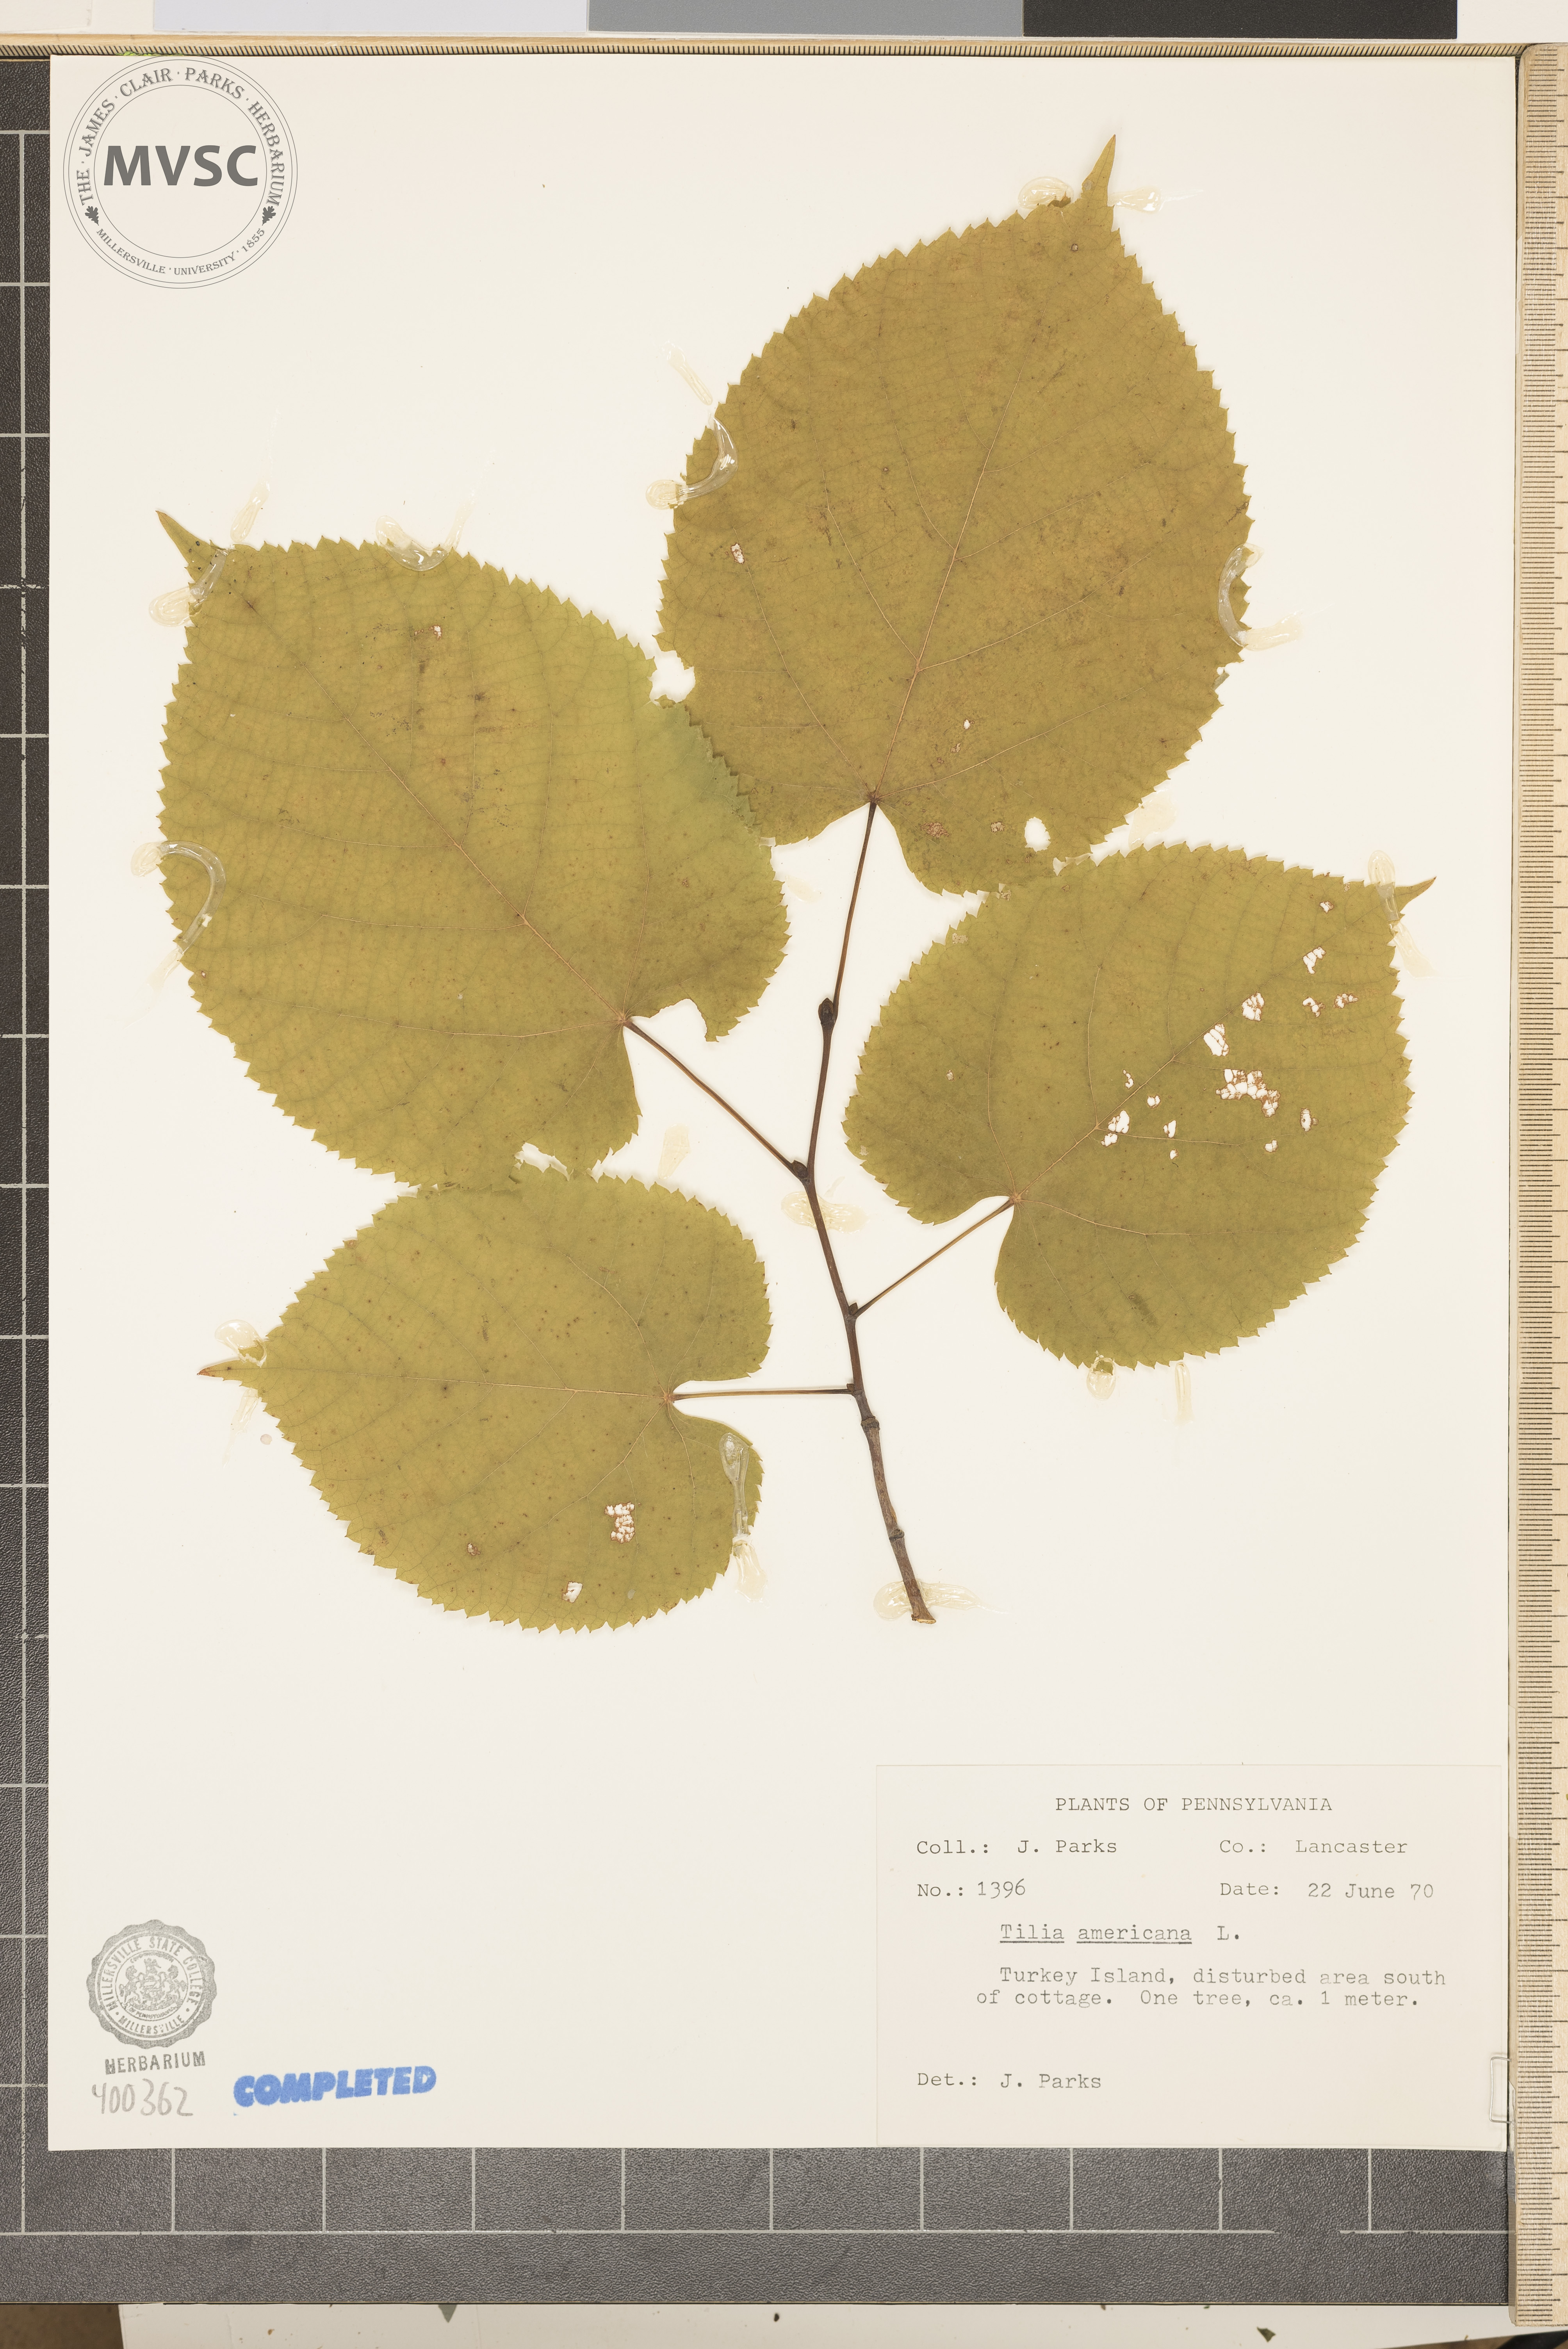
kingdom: Plantae
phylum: Tracheophyta
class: Magnoliopsida
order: Malvales
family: Malvaceae
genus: Tilia
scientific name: Tilia americana
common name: American basswood
